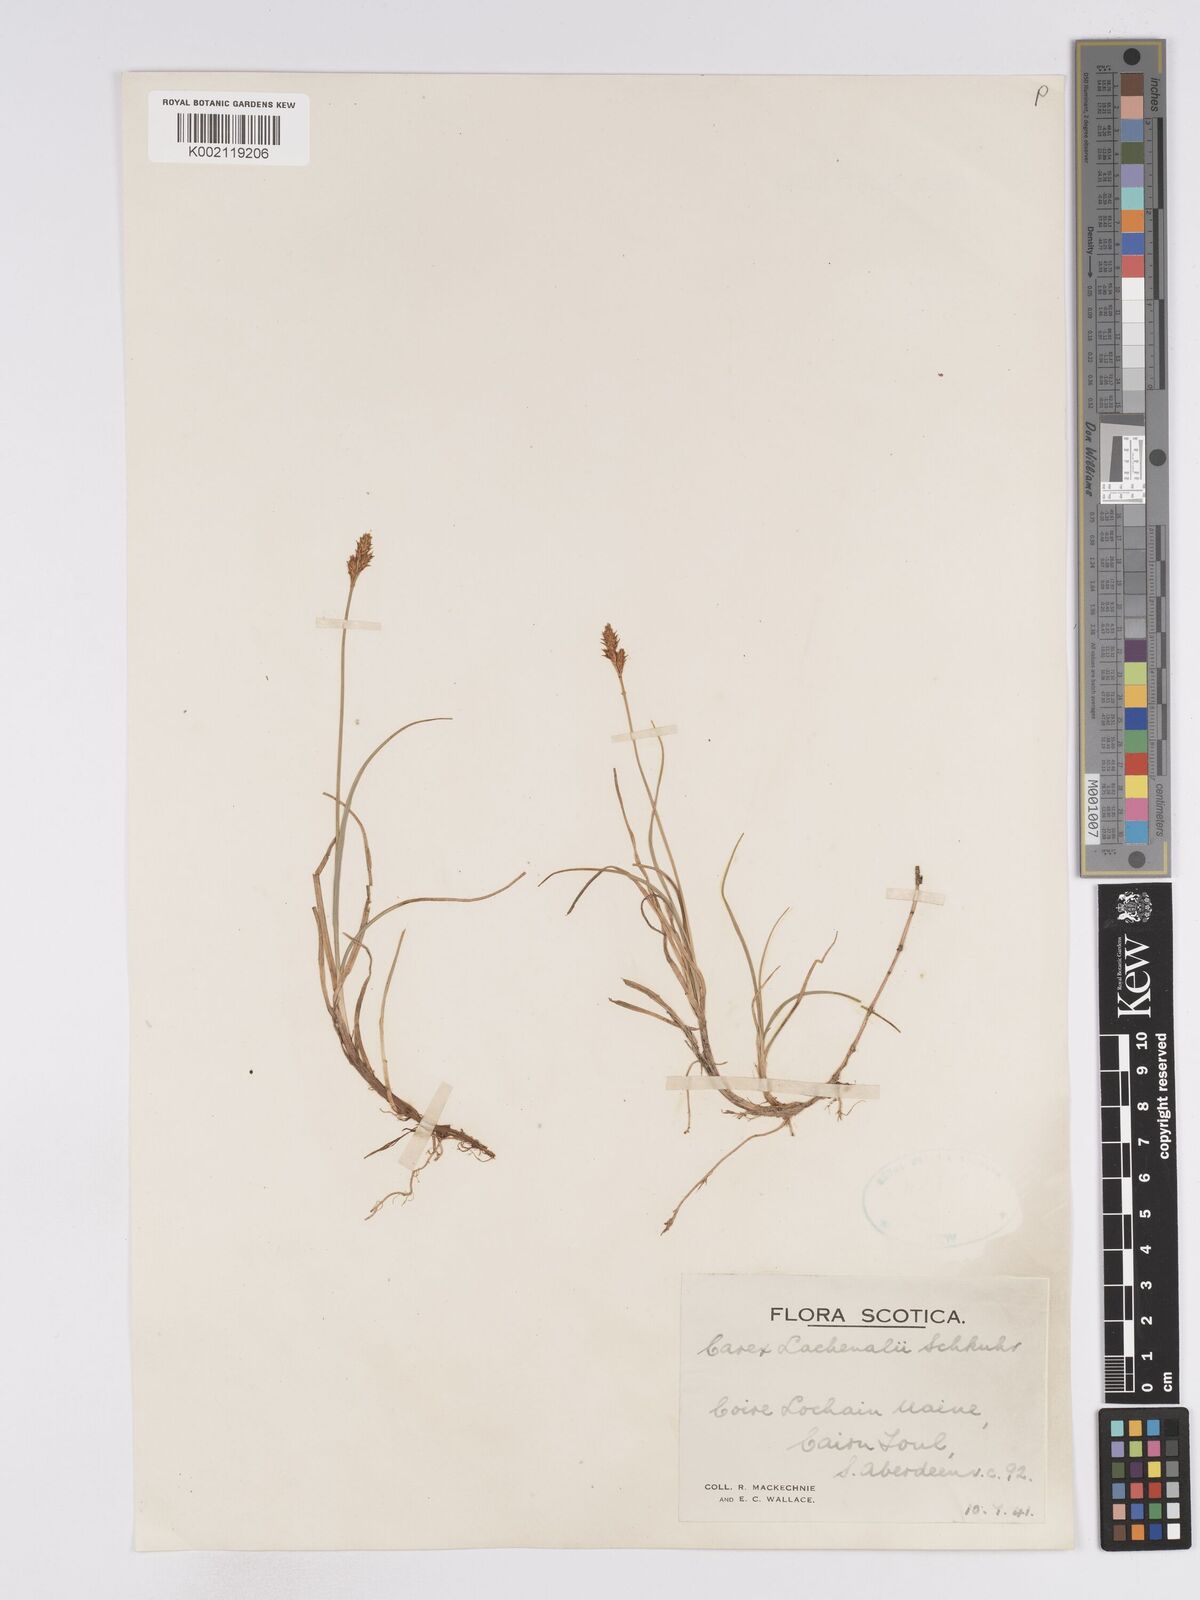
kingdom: Plantae
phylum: Tracheophyta
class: Liliopsida
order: Poales
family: Cyperaceae
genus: Carex
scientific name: Carex lachenalii
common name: Hare's-foot sedge
